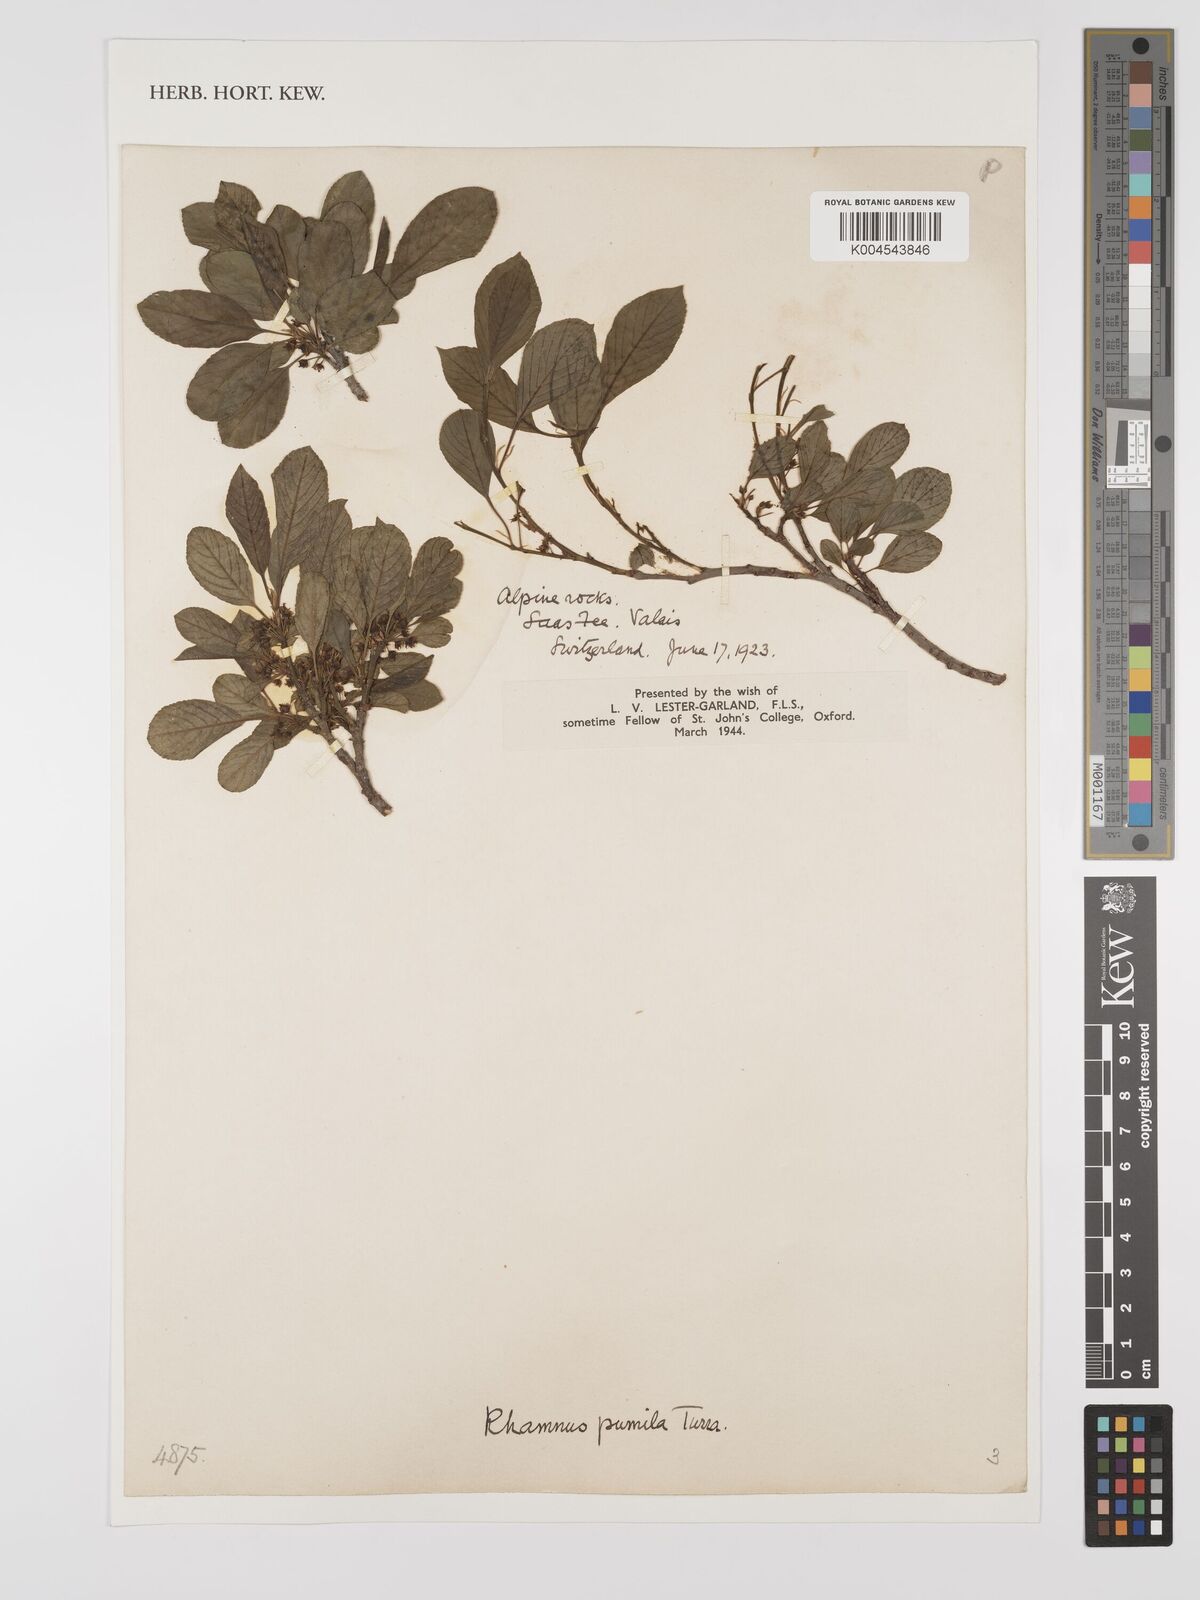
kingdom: Plantae
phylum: Tracheophyta
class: Magnoliopsida
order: Rosales
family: Rhamnaceae
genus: Rhamnus
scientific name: Rhamnus
